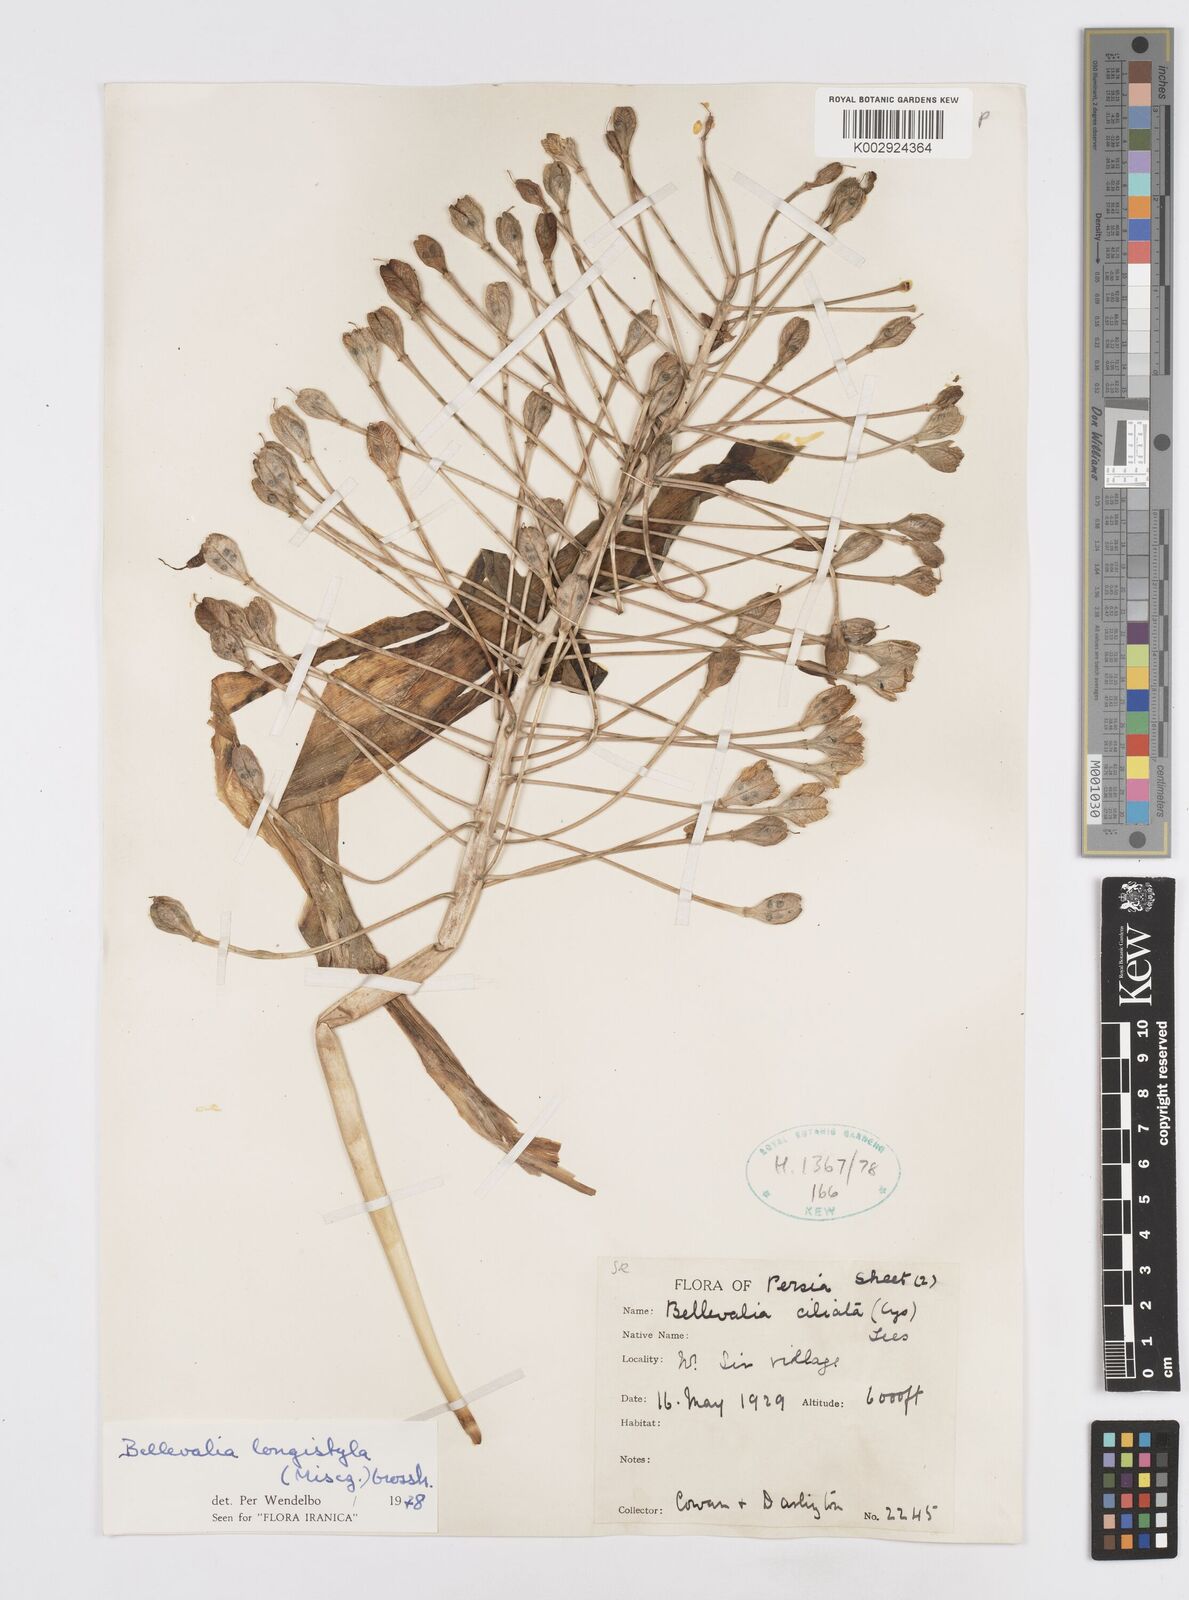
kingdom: Plantae
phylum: Tracheophyta
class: Liliopsida
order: Asparagales
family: Asparagaceae
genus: Bellevalia
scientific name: Bellevalia longistyla
